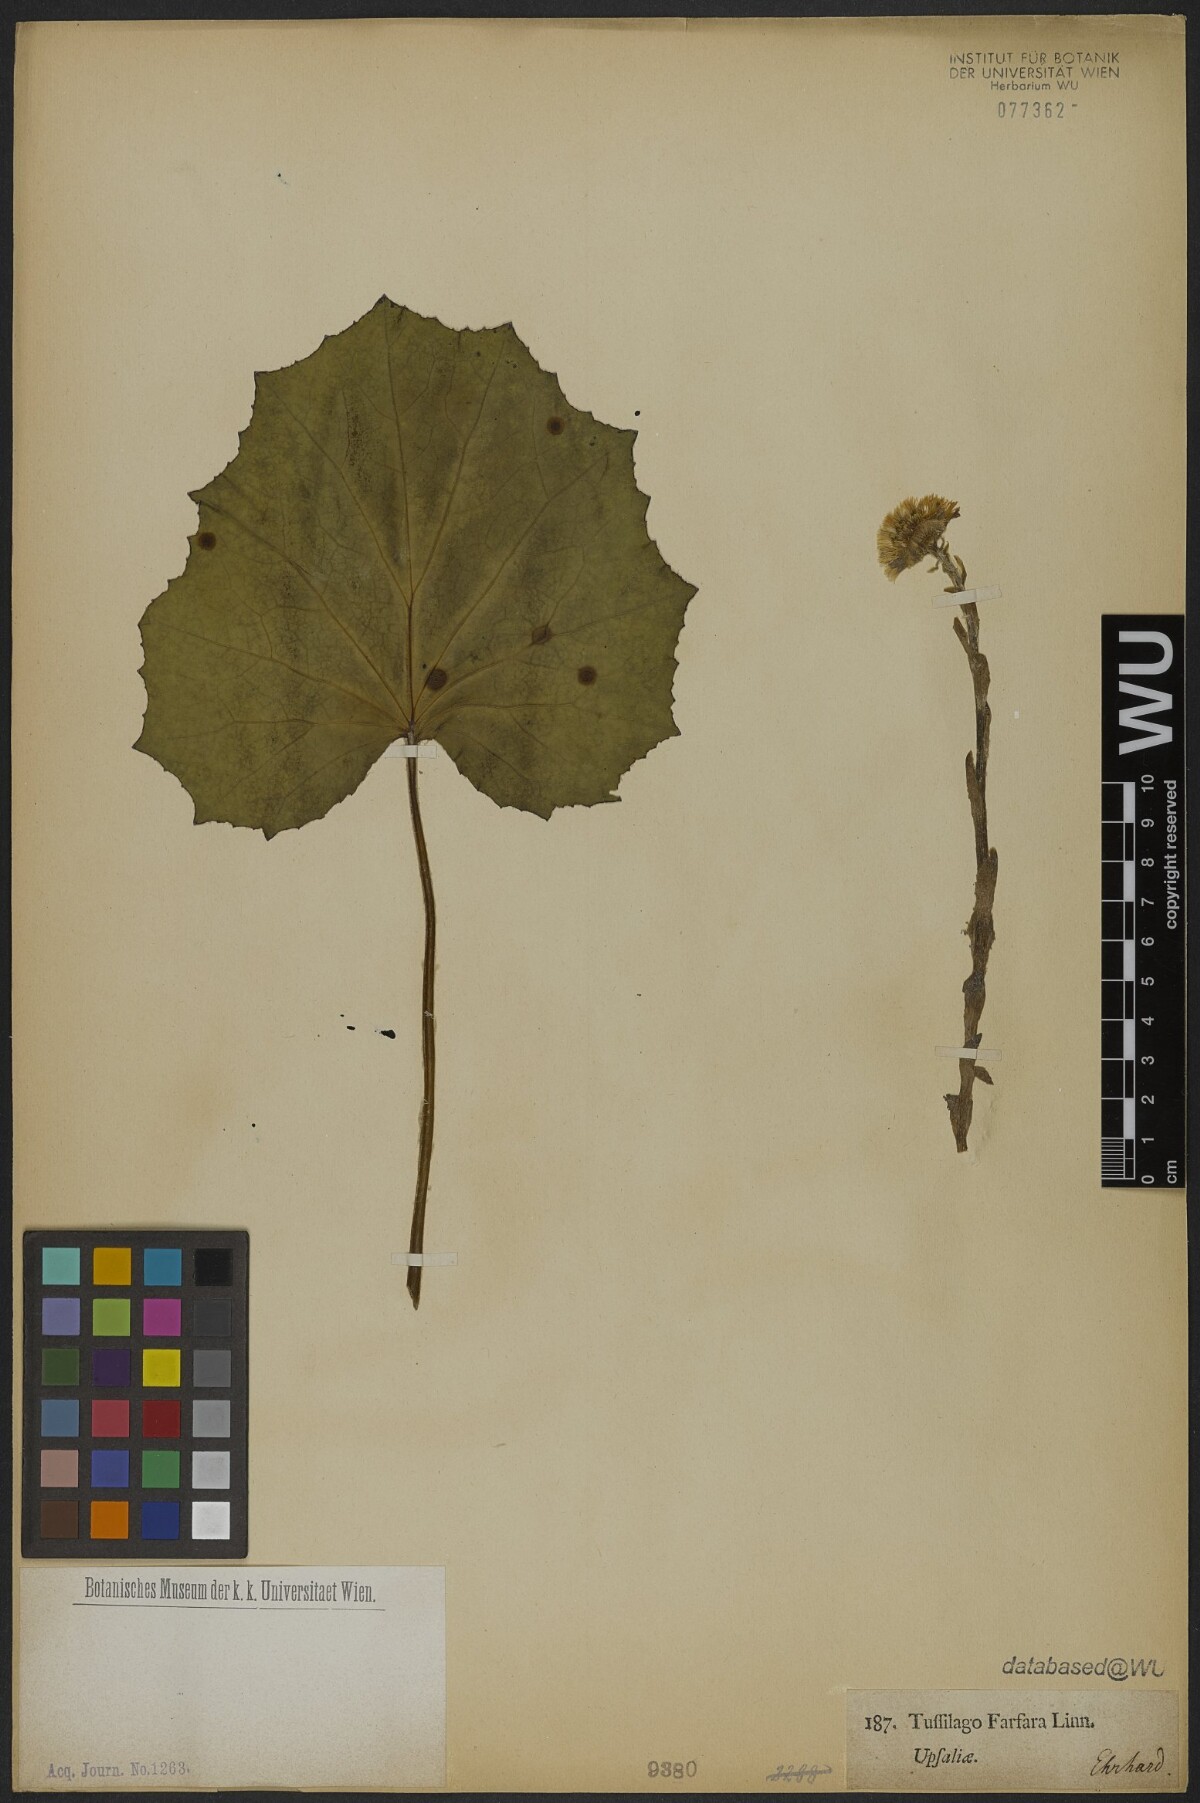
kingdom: Plantae
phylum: Tracheophyta
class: Magnoliopsida
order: Asterales
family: Asteraceae
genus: Tussilago
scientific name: Tussilago farfara
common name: Coltsfoot
